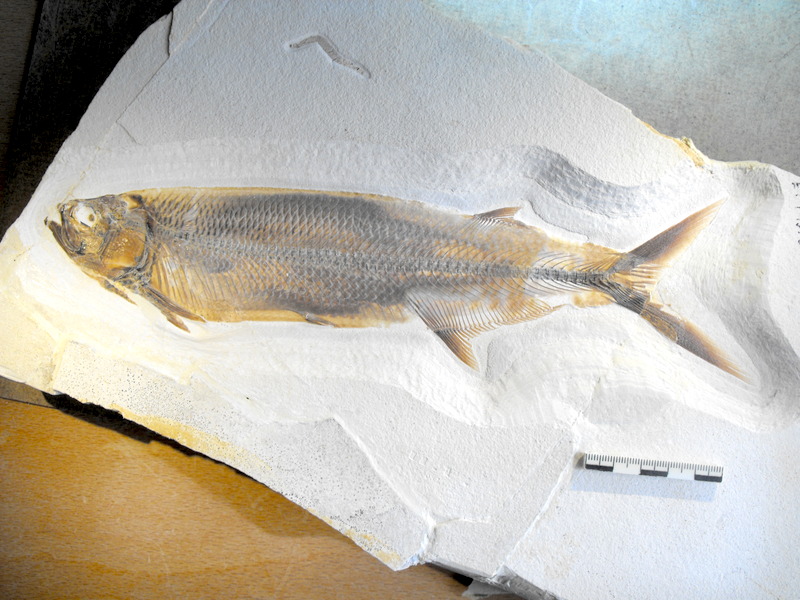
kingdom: Animalia
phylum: Chordata
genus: Thrissops
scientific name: Thrissops formosus
